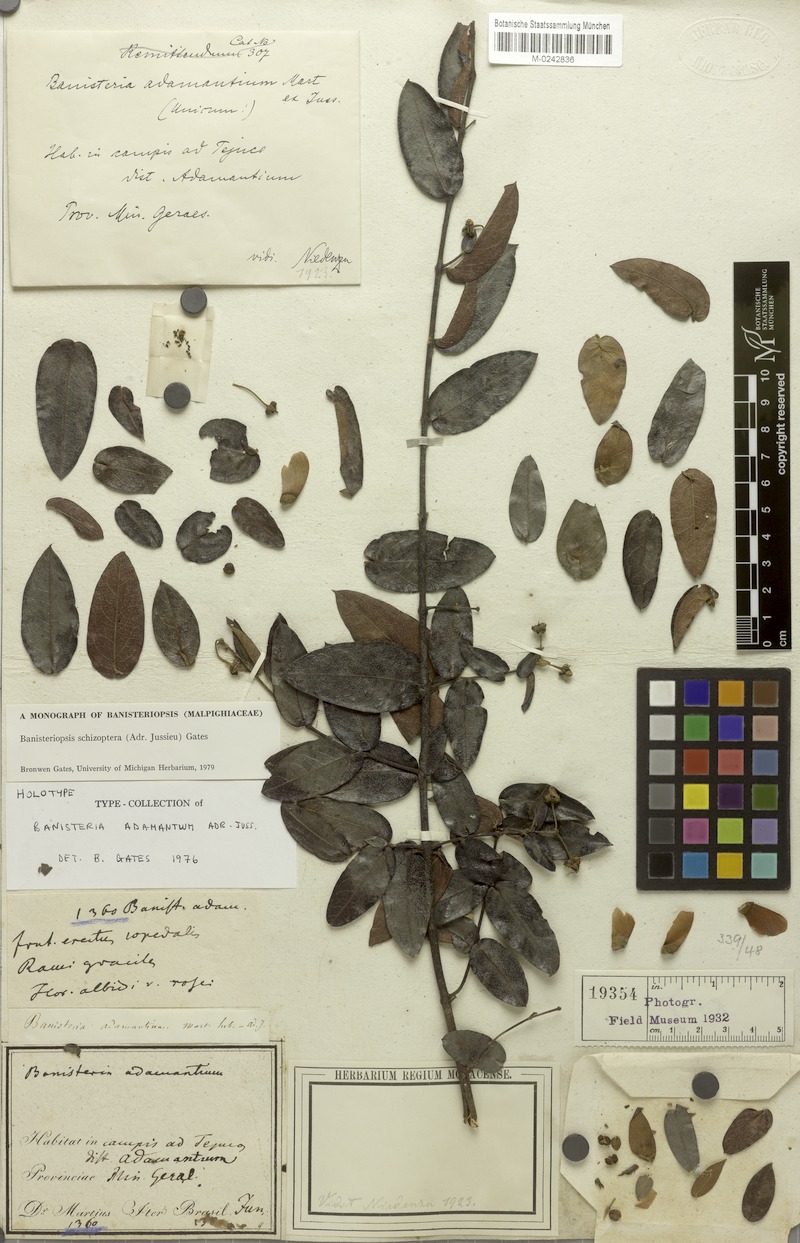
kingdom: Plantae
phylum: Tracheophyta
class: Magnoliopsida
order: Malpighiales
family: Malpighiaceae
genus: Banisteriopsis
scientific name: Banisteriopsis schizoptera
